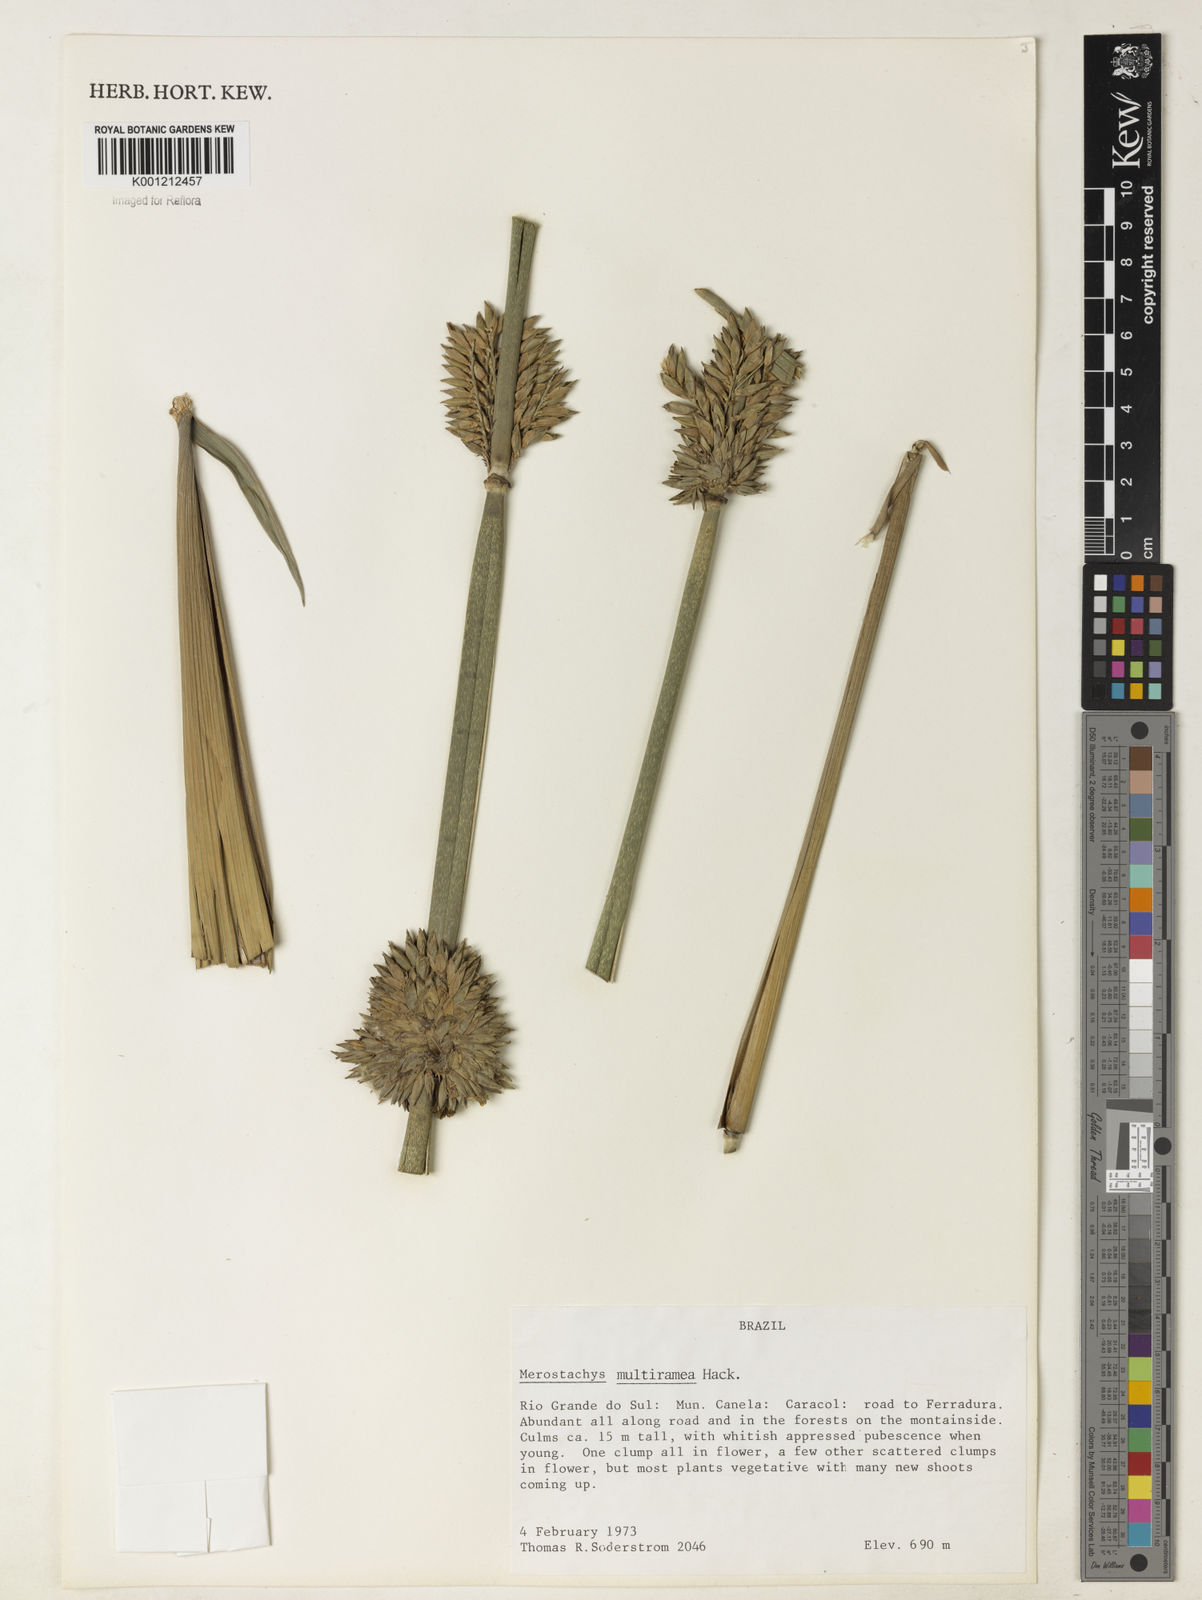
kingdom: Plantae
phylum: Tracheophyta
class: Liliopsida
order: Poales
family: Poaceae
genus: Merostachys
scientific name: Merostachys multiramea
